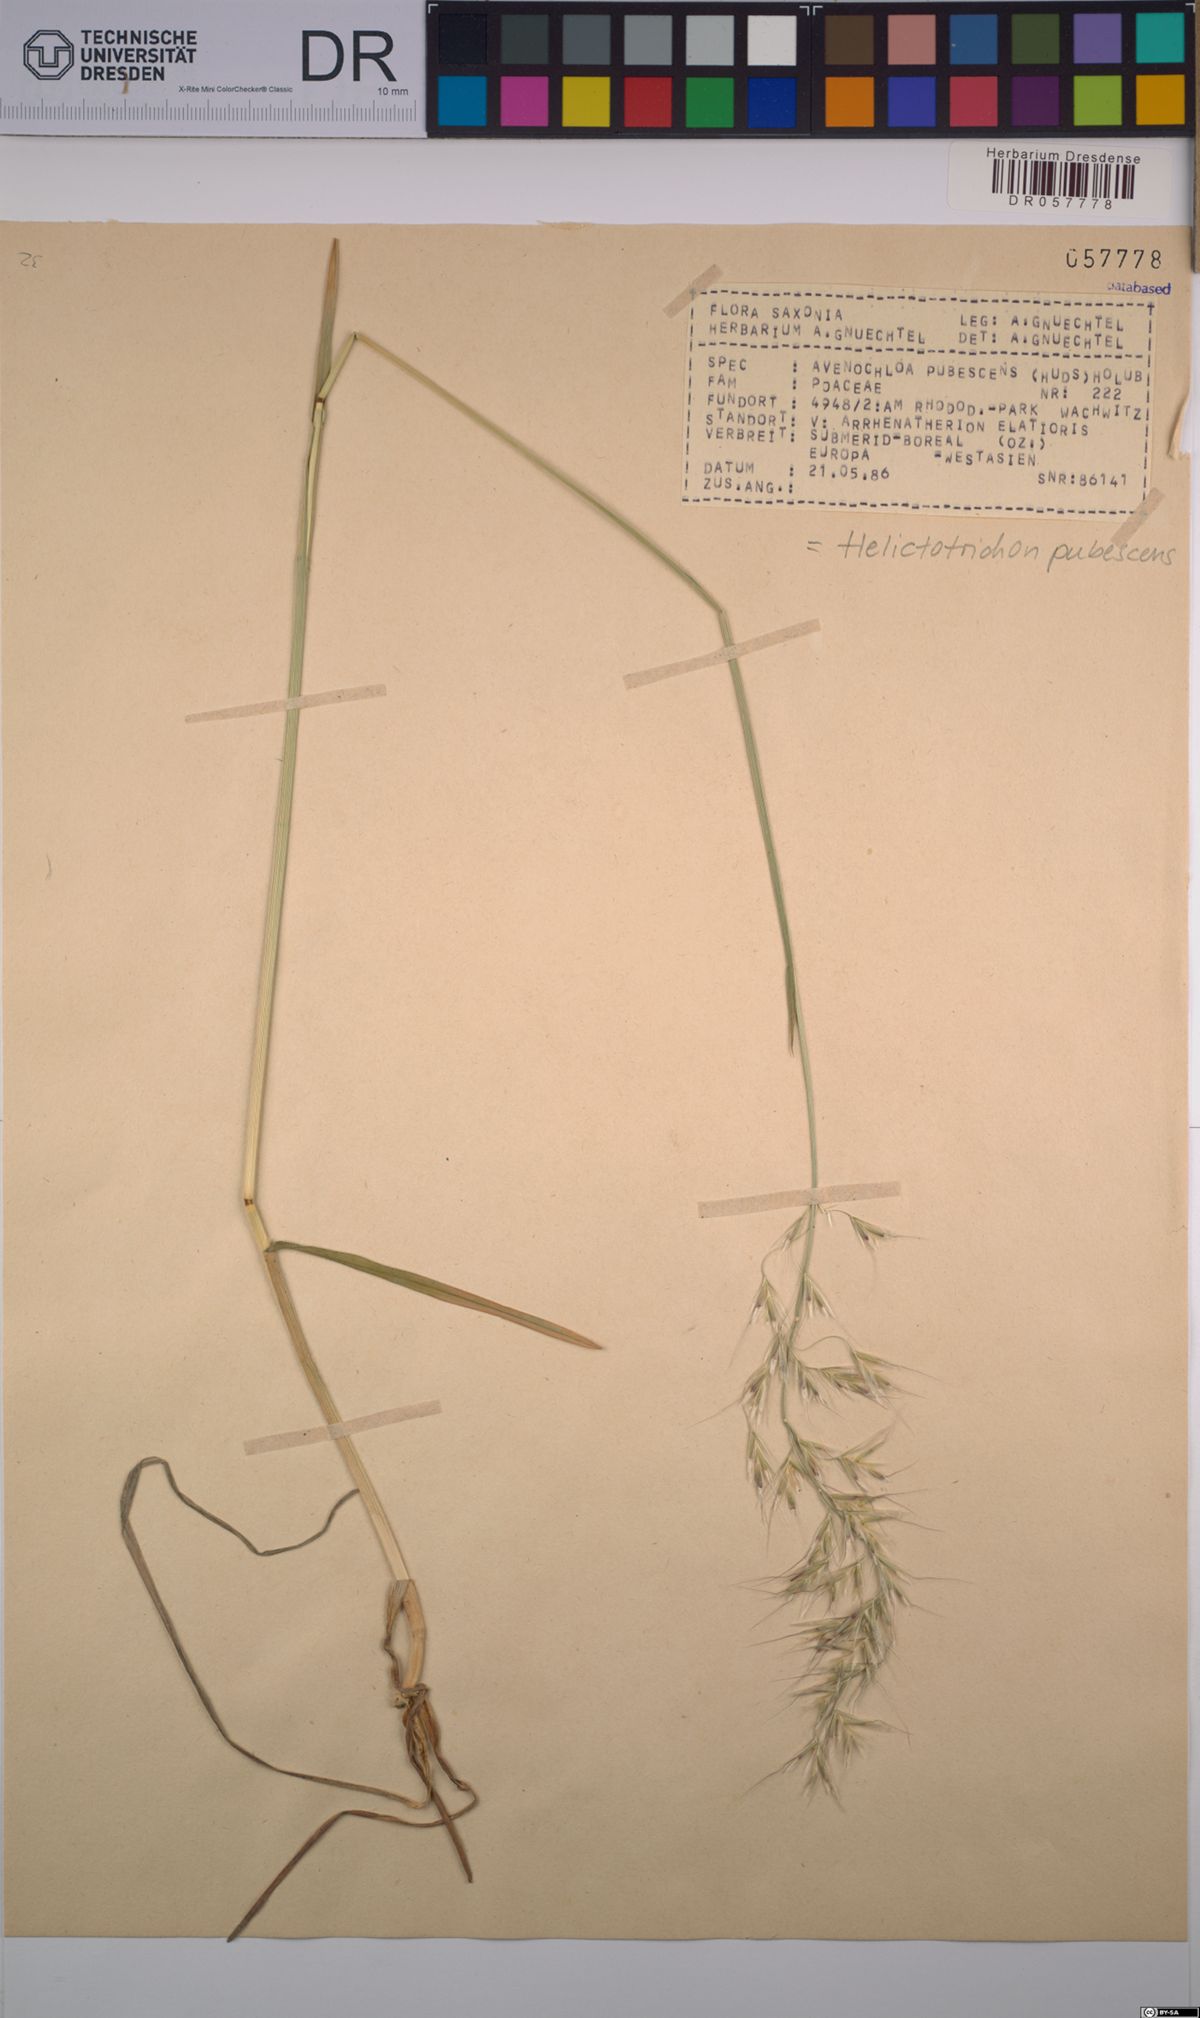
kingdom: Plantae
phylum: Tracheophyta
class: Liliopsida
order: Poales
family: Poaceae
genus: Avenula
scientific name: Avenula pubescens
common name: Downy alpine oatgrass
